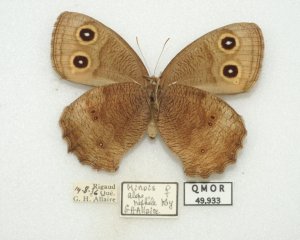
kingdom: Animalia
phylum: Arthropoda
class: Insecta
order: Lepidoptera
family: Nymphalidae
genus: Cercyonis
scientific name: Cercyonis pegala
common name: Common Wood-Nymph
